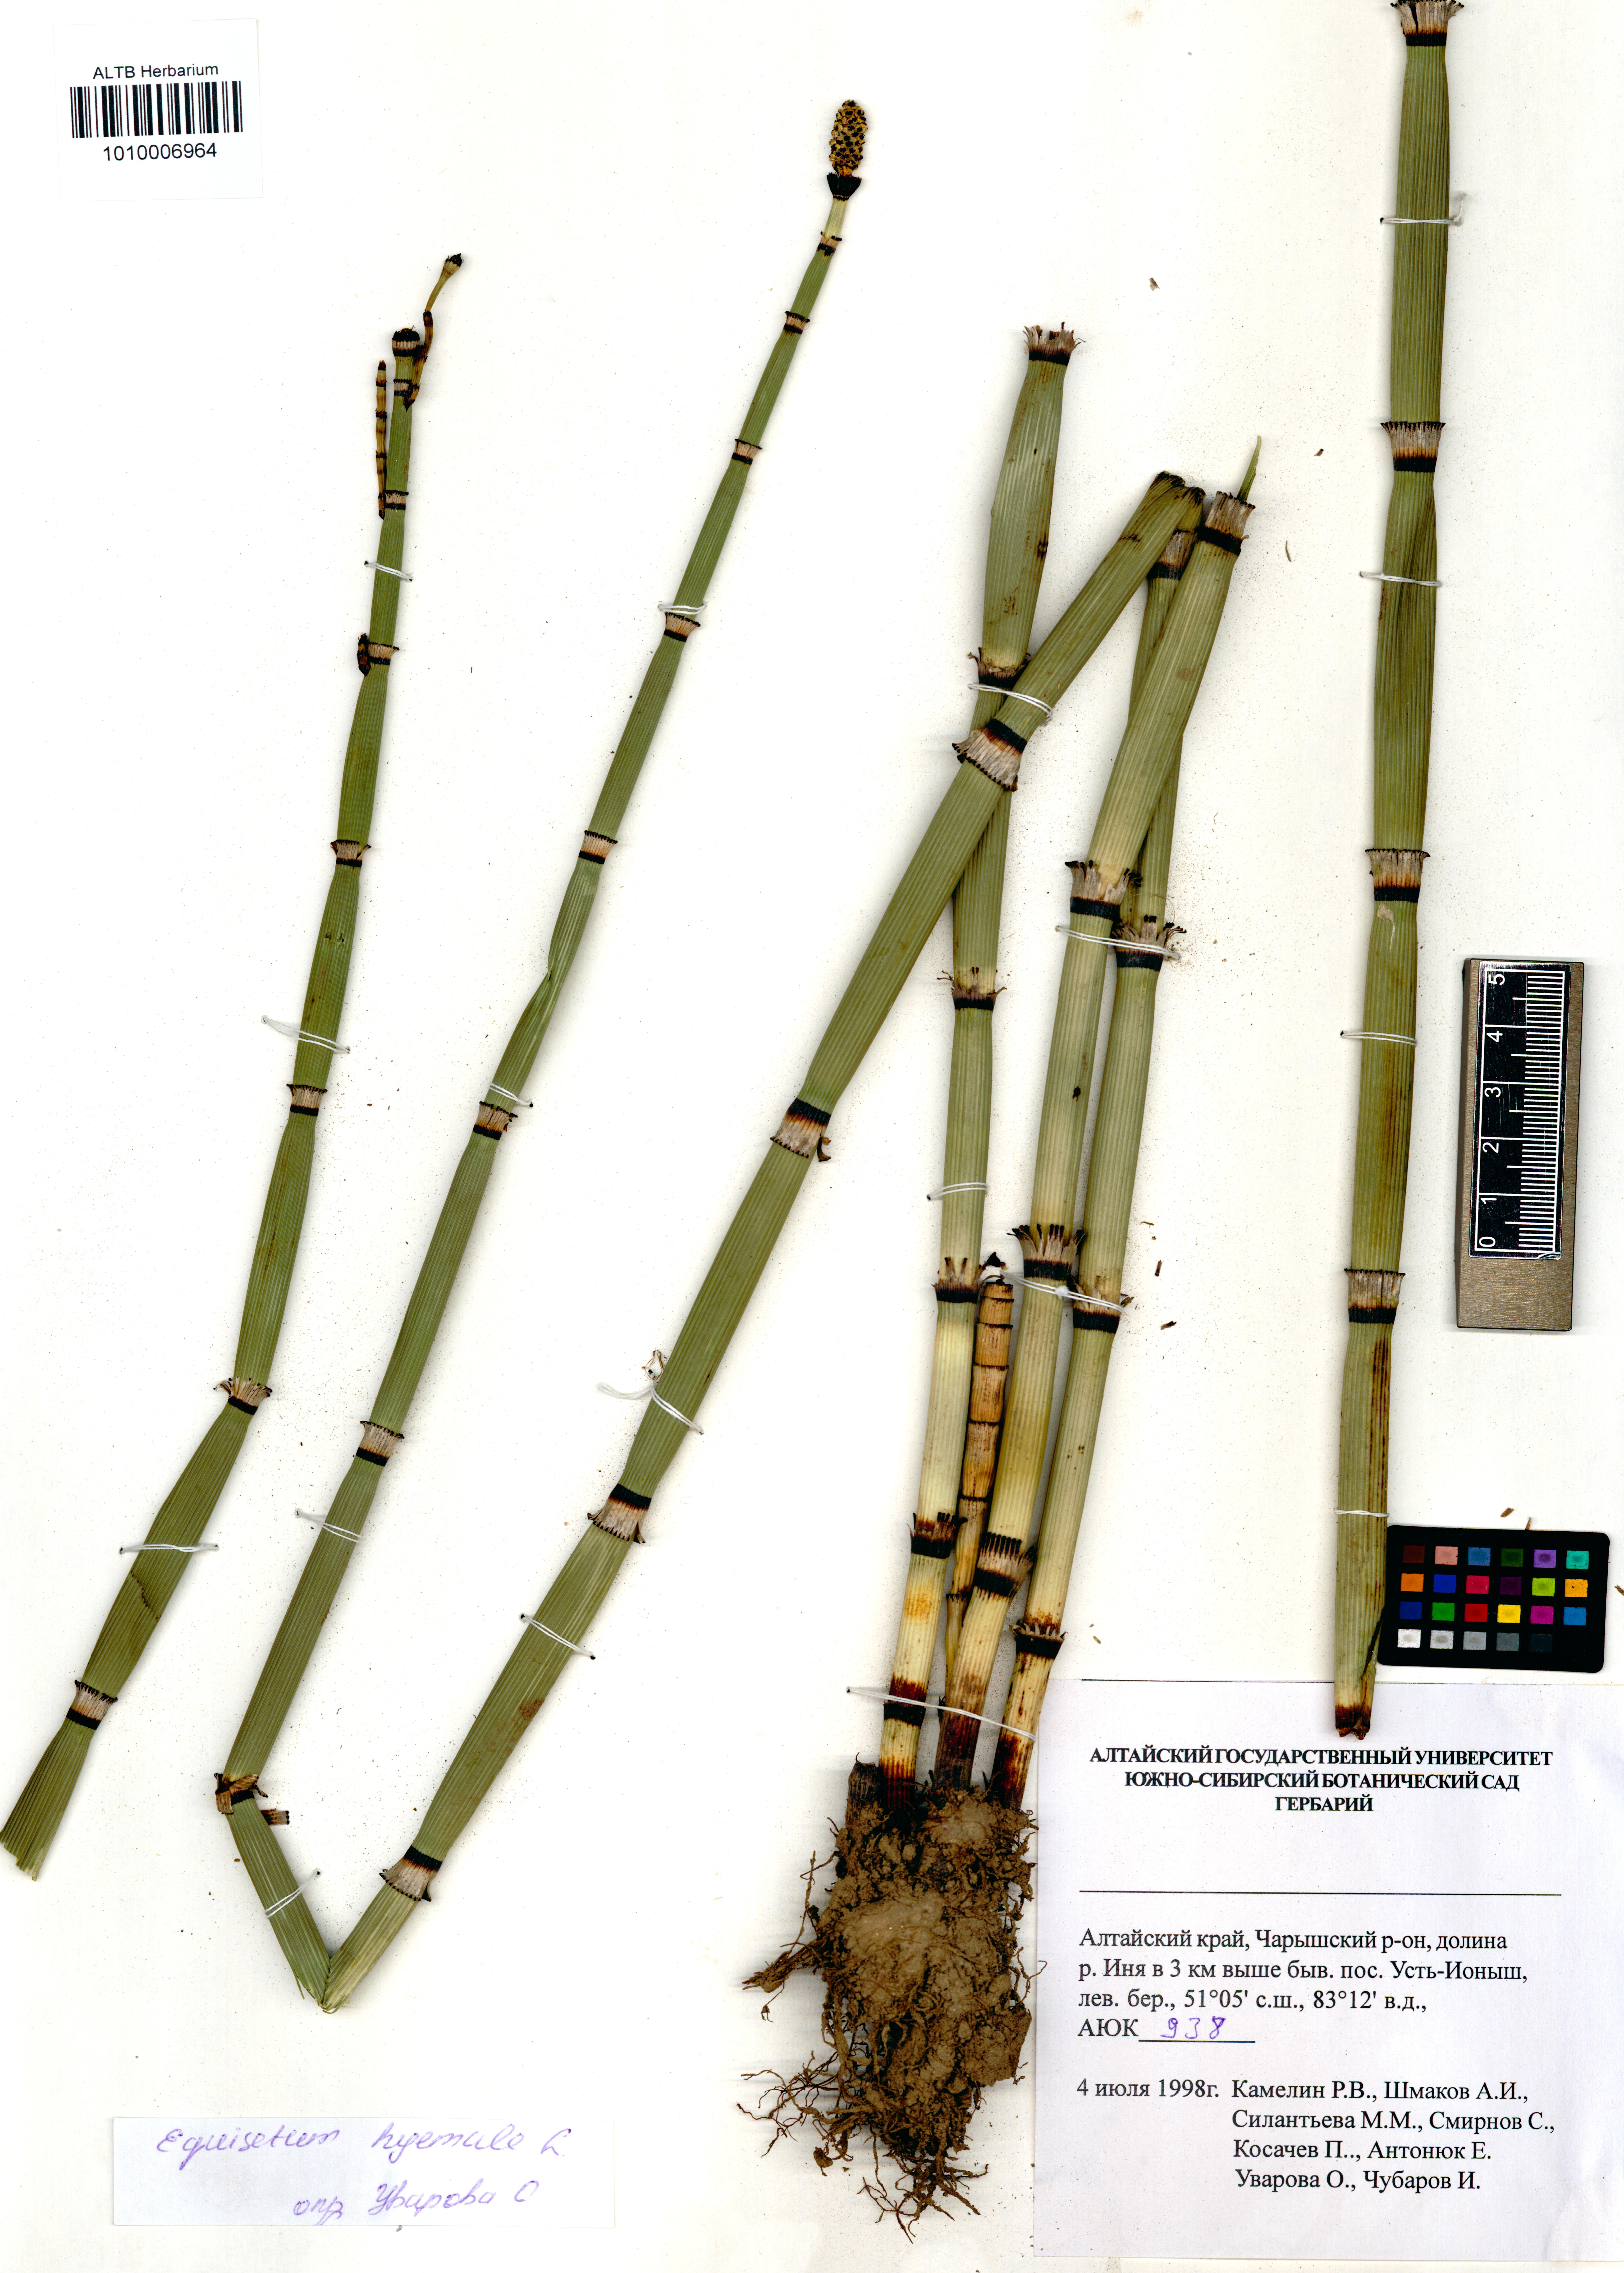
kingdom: Plantae
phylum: Tracheophyta
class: Polypodiopsida
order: Equisetales
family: Equisetaceae
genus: Equisetum
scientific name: Equisetum hyemale
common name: Rough horsetail
